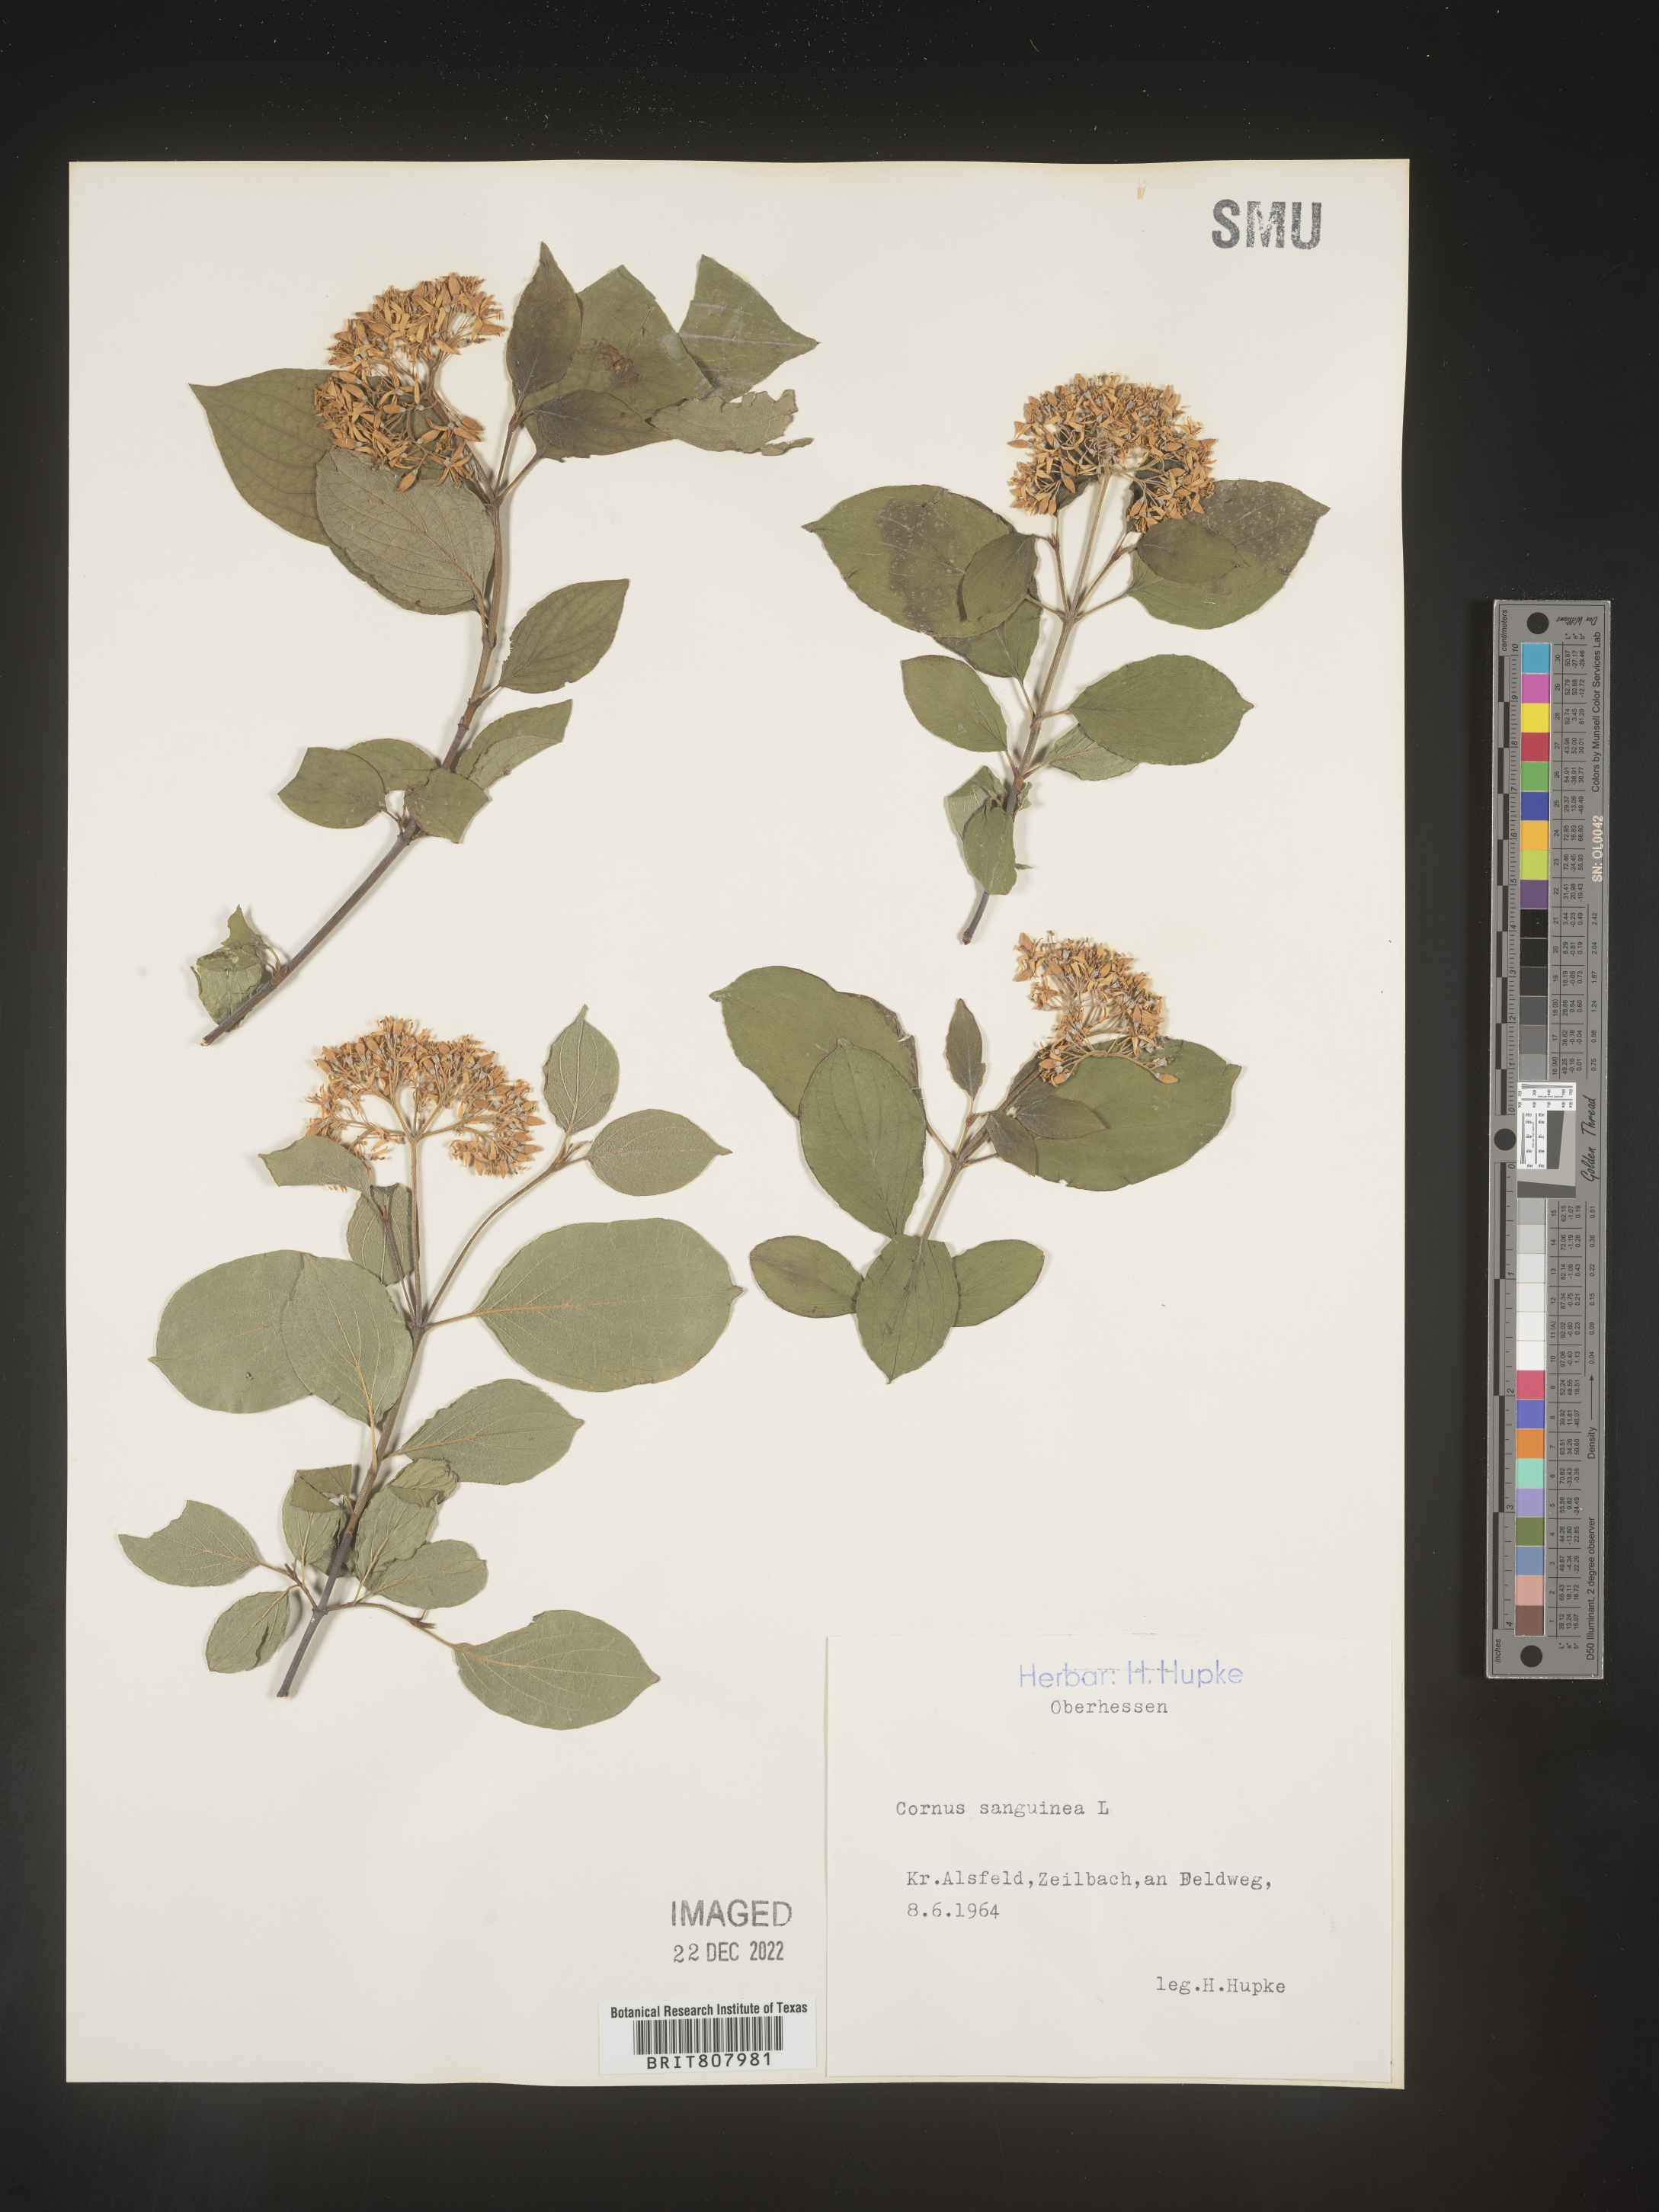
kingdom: Plantae
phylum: Tracheophyta
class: Magnoliopsida
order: Cornales
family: Cornaceae
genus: Cornus
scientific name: Cornus
